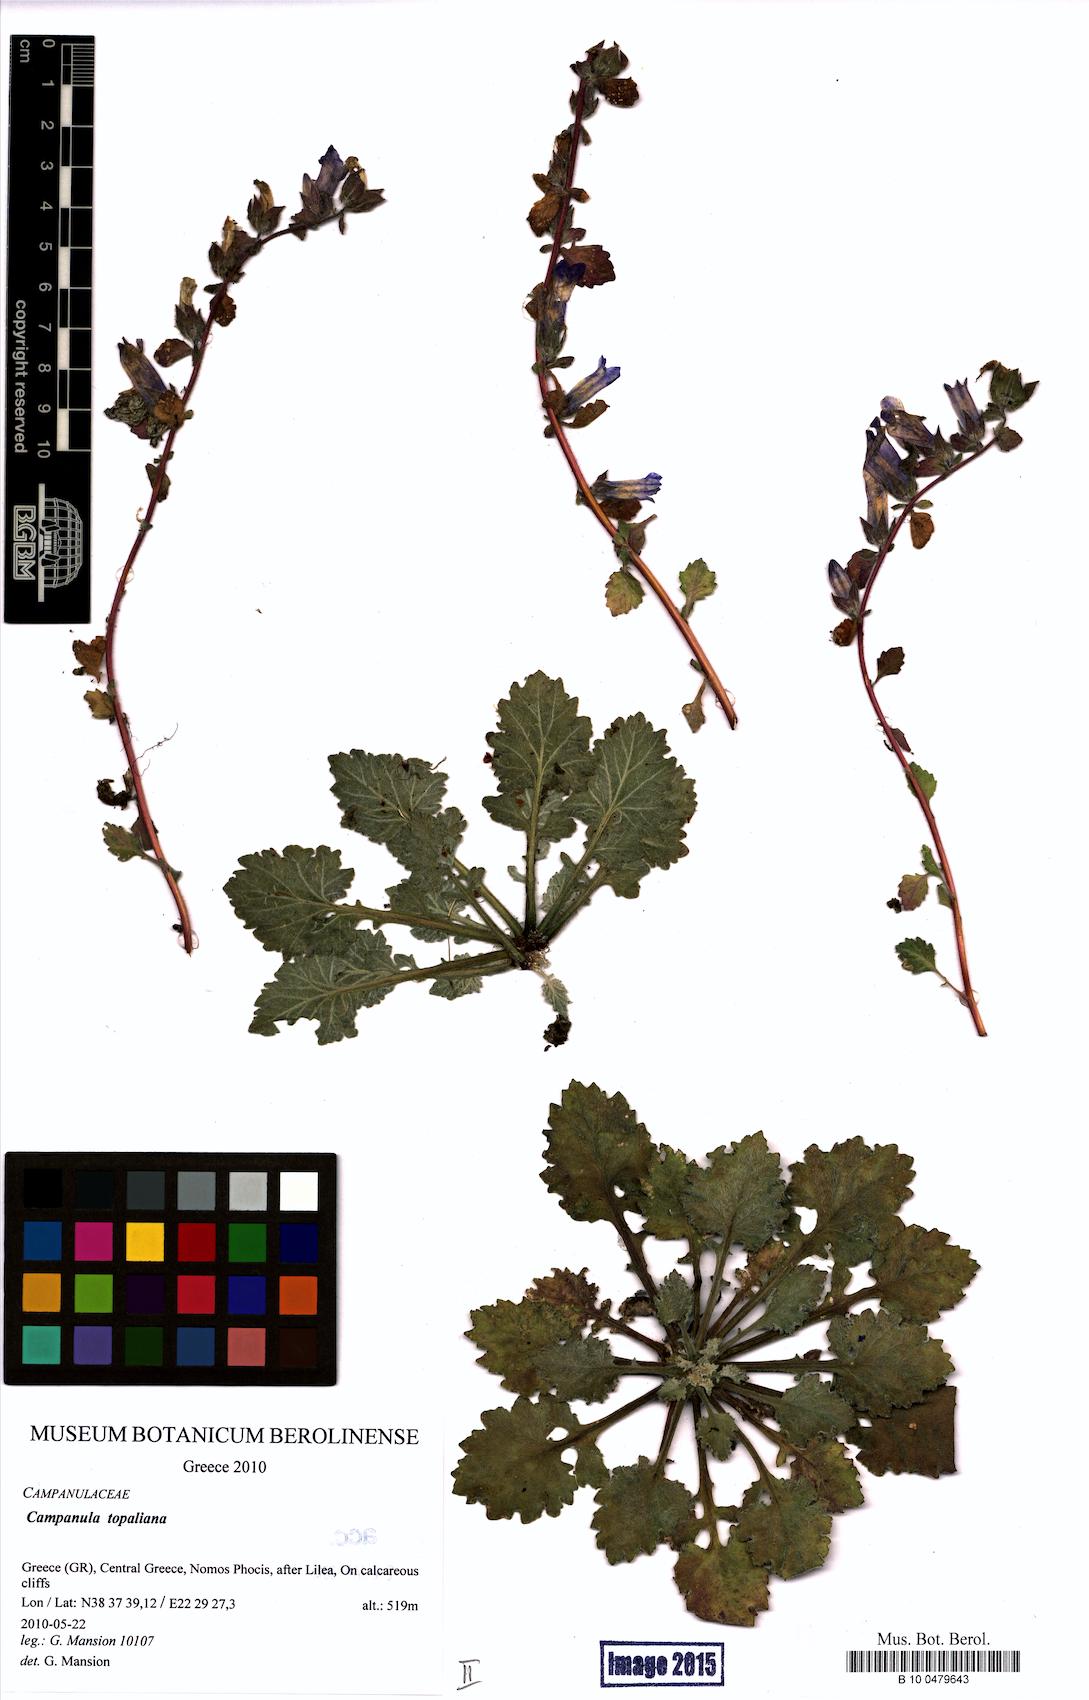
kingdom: Plantae
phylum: Tracheophyta
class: Magnoliopsida
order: Asterales
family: Campanulaceae
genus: Campanula
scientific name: Campanula topaliana
